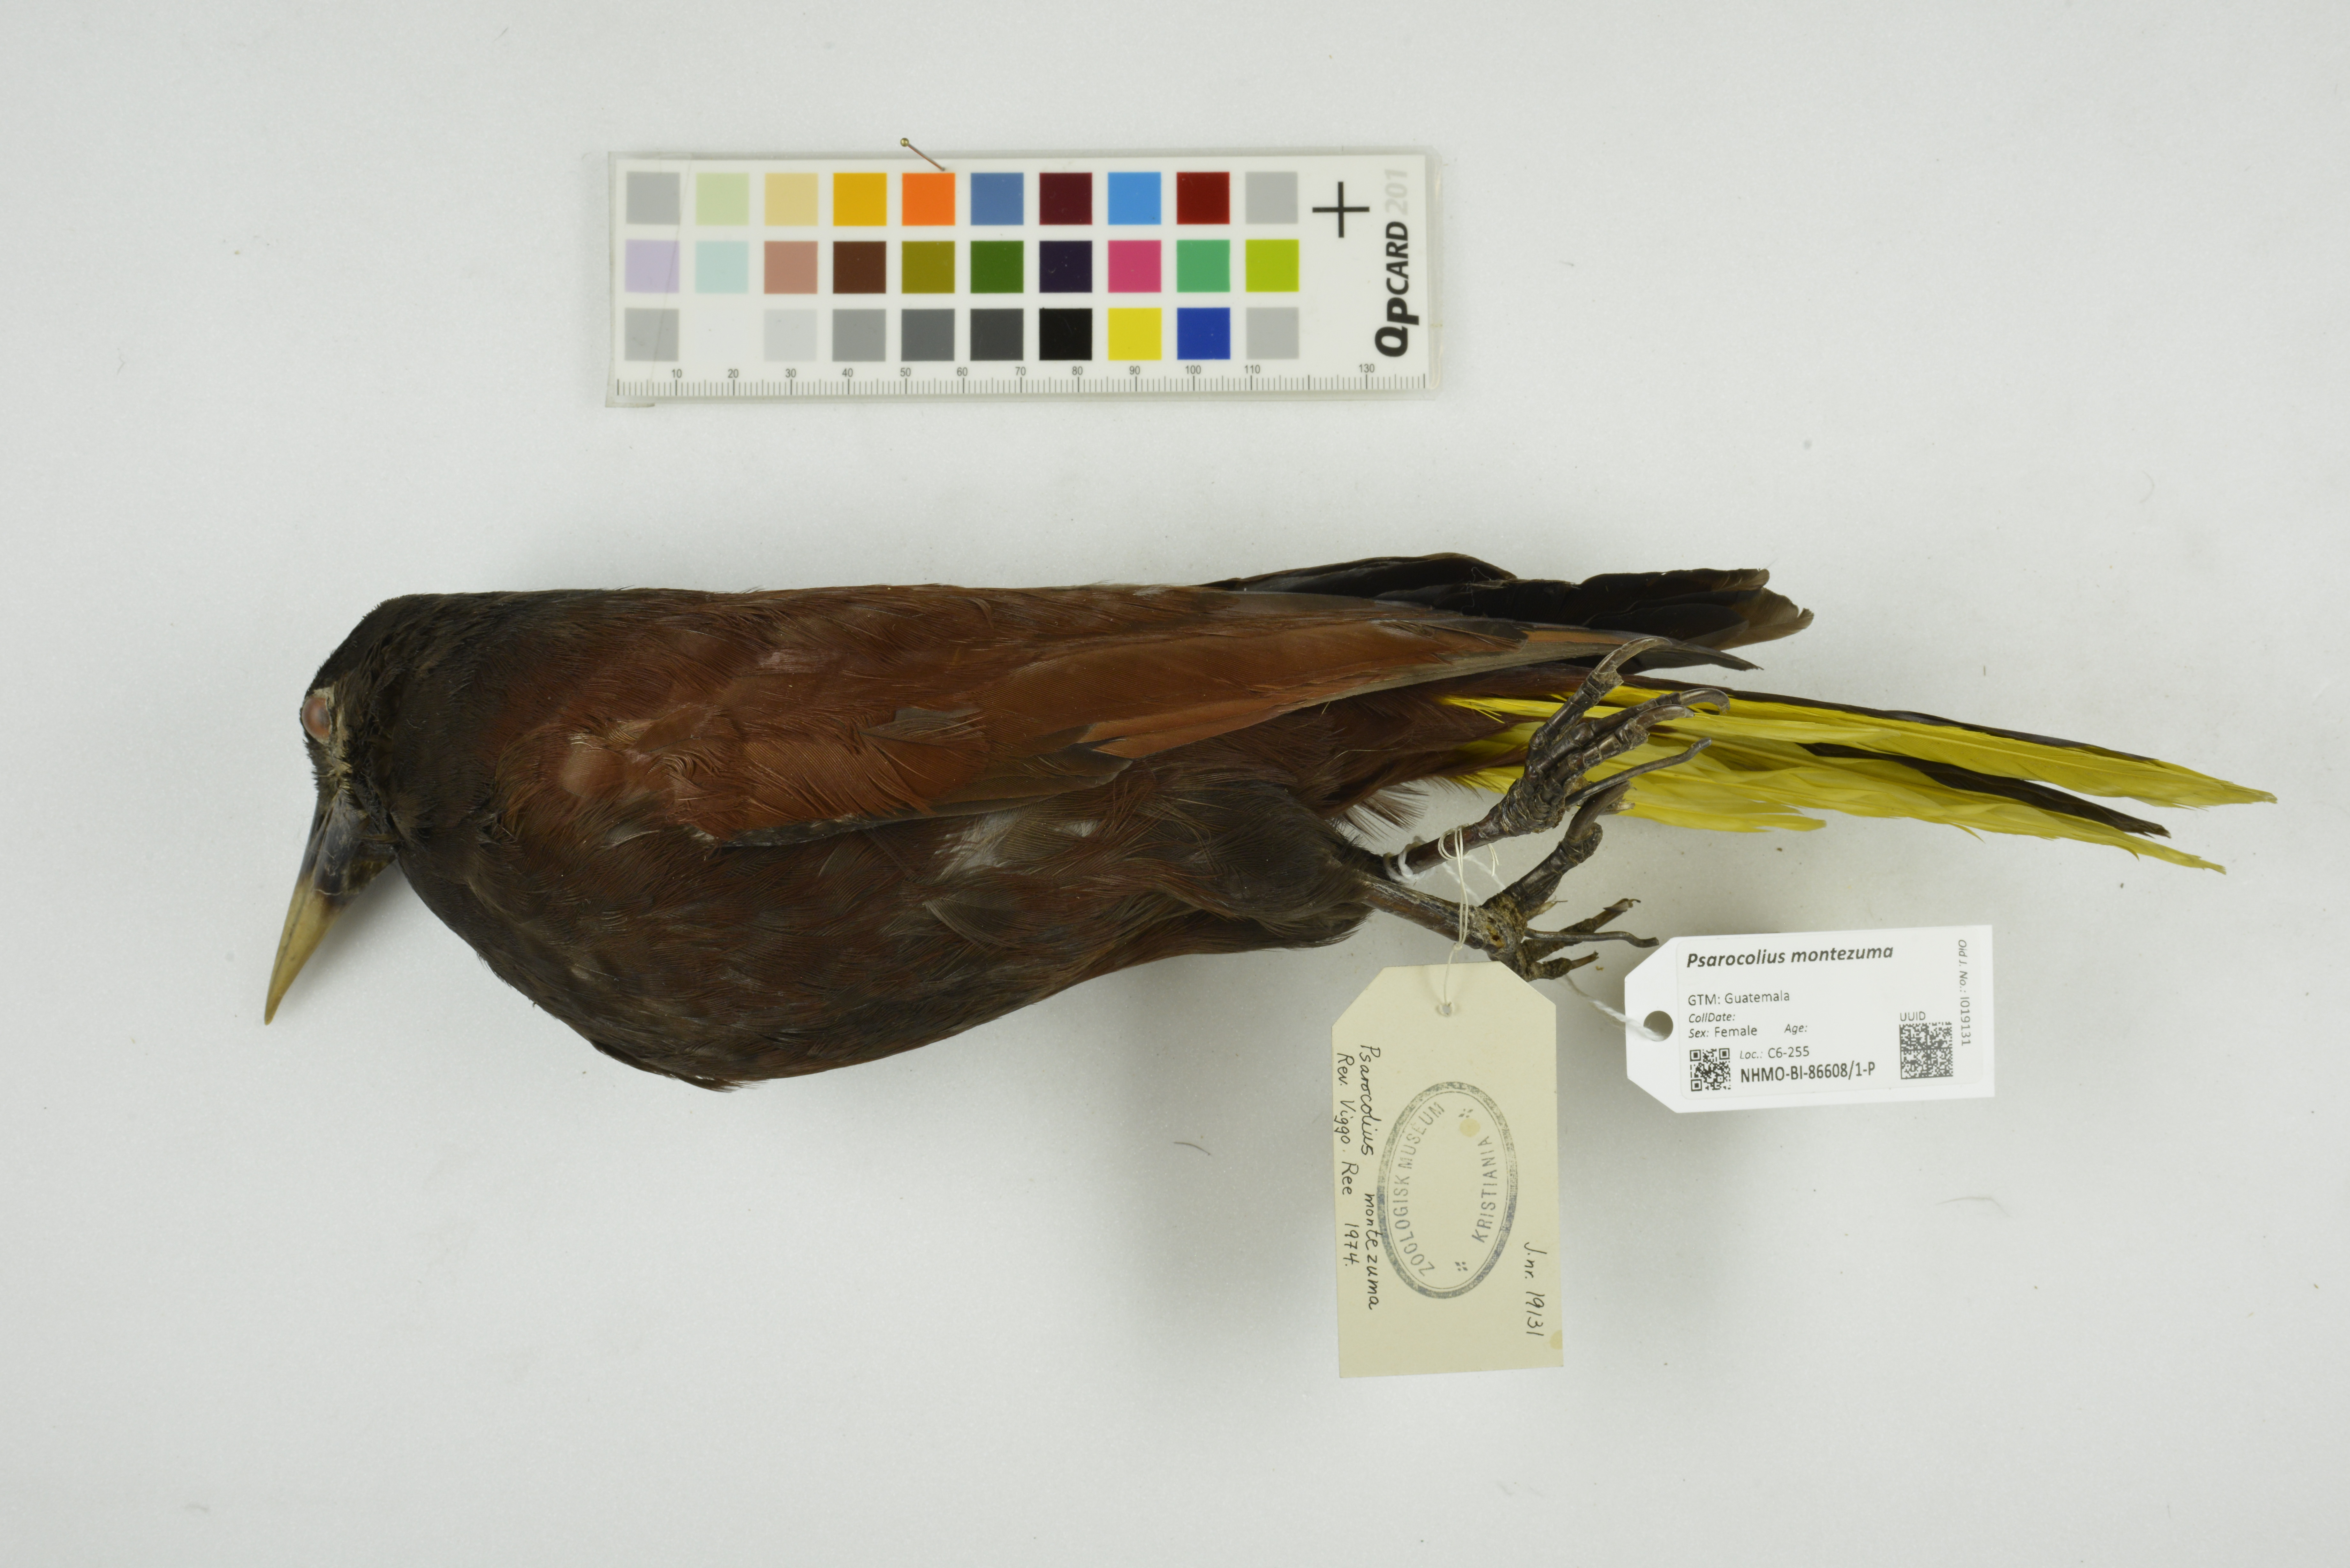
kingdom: Animalia
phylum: Chordata
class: Aves
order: Passeriformes
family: Icteridae
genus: Psarocolius
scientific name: Psarocolius montezuma
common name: Montezuma oropendola
